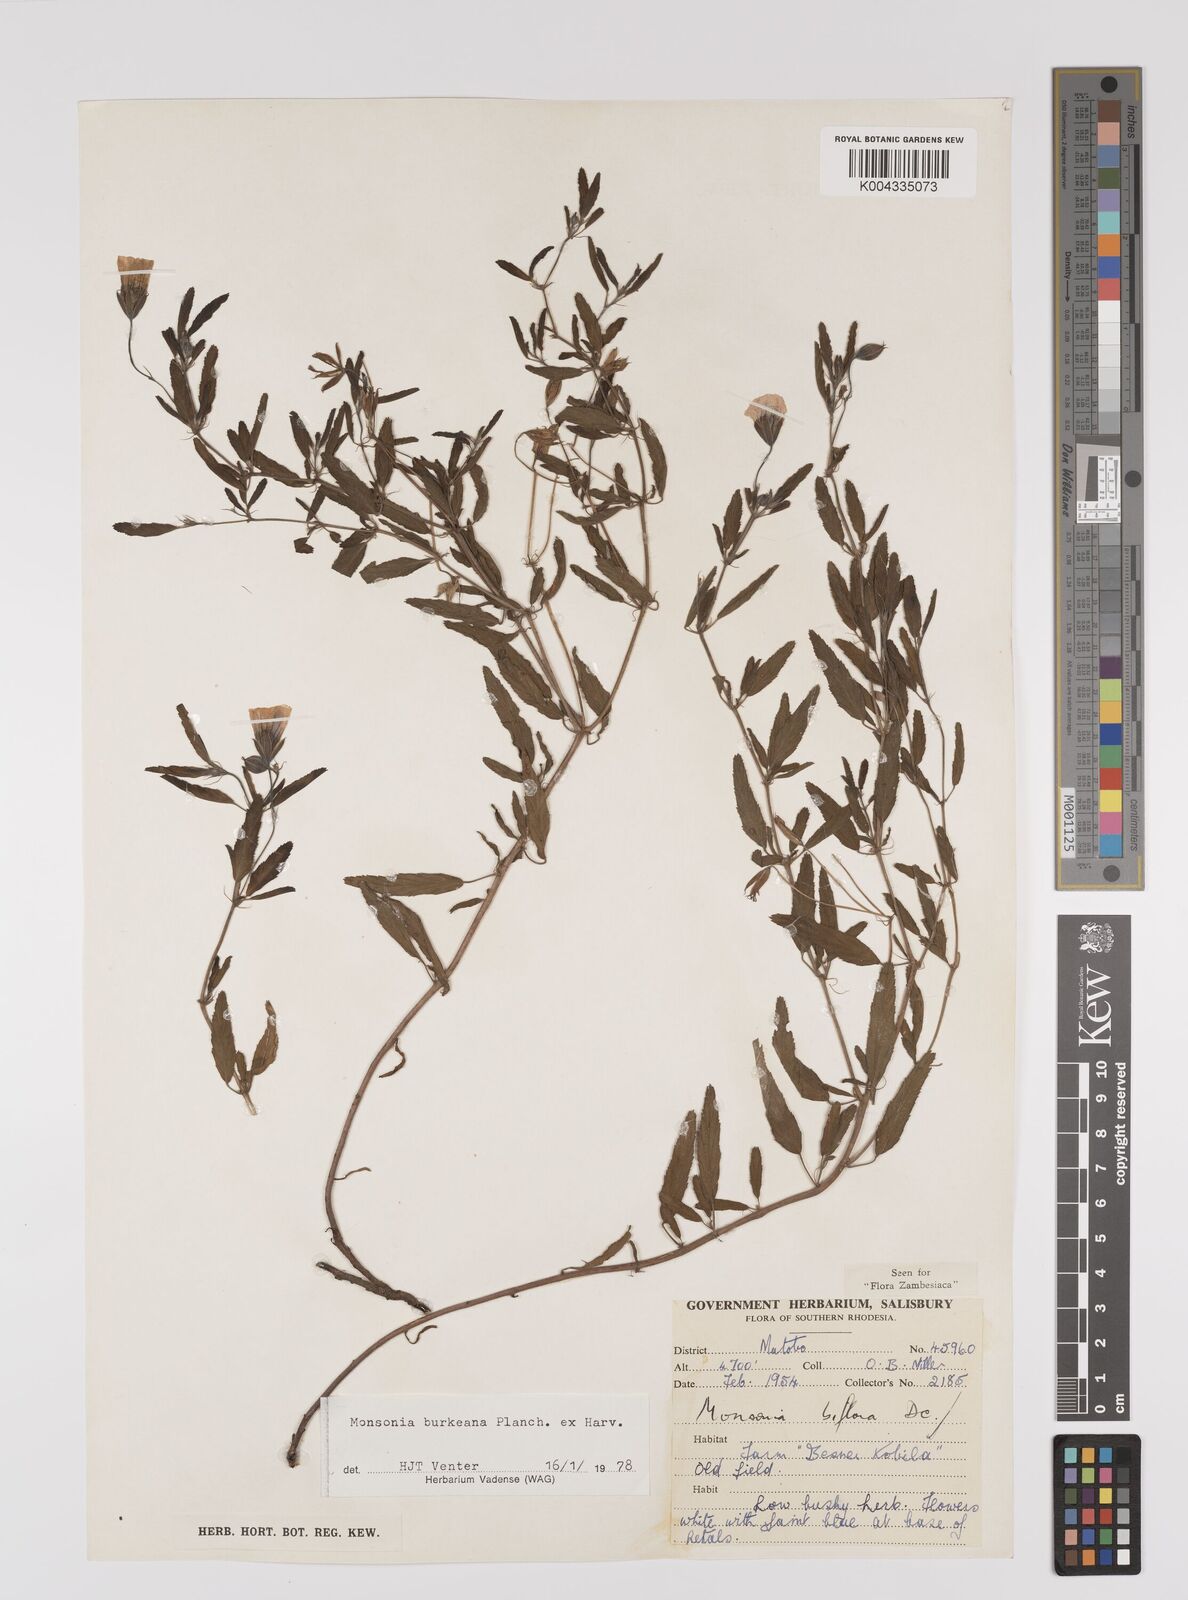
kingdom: Plantae
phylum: Tracheophyta
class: Magnoliopsida
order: Geraniales
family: Geraniaceae
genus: Monsonia
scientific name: Monsonia biflora
